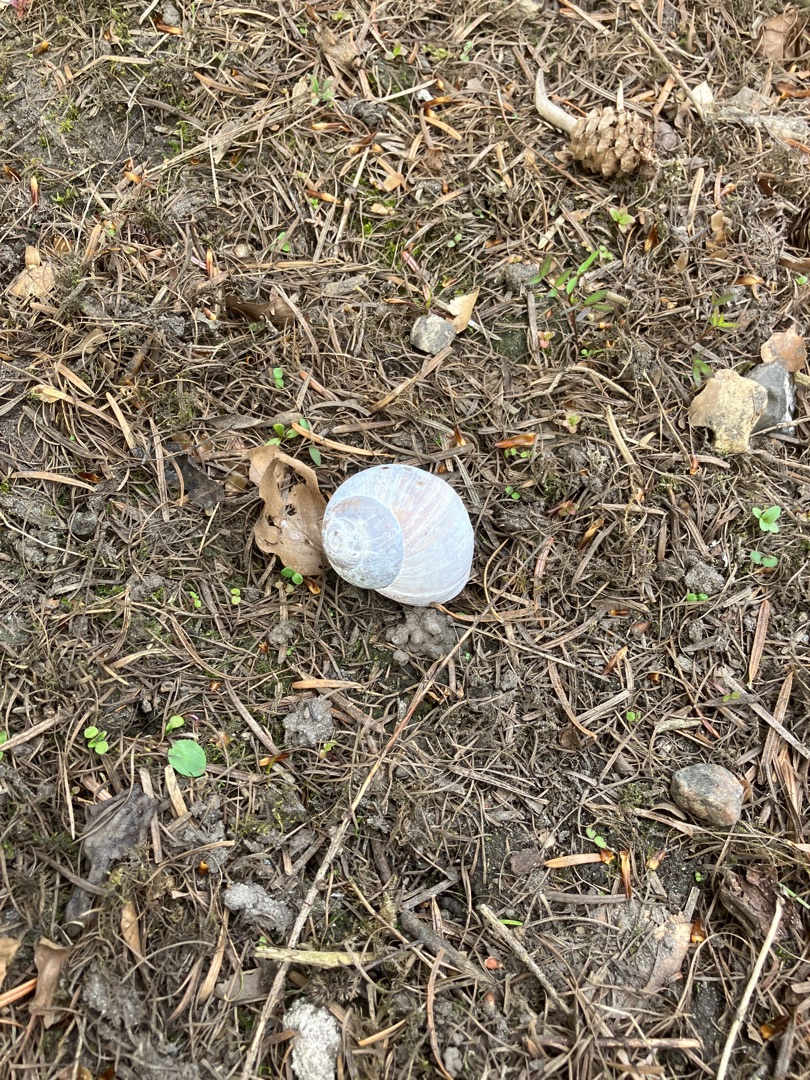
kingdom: Animalia
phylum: Mollusca
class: Gastropoda
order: Stylommatophora
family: Helicidae
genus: Helix
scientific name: Helix pomatia
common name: Vinbjergsnegl
